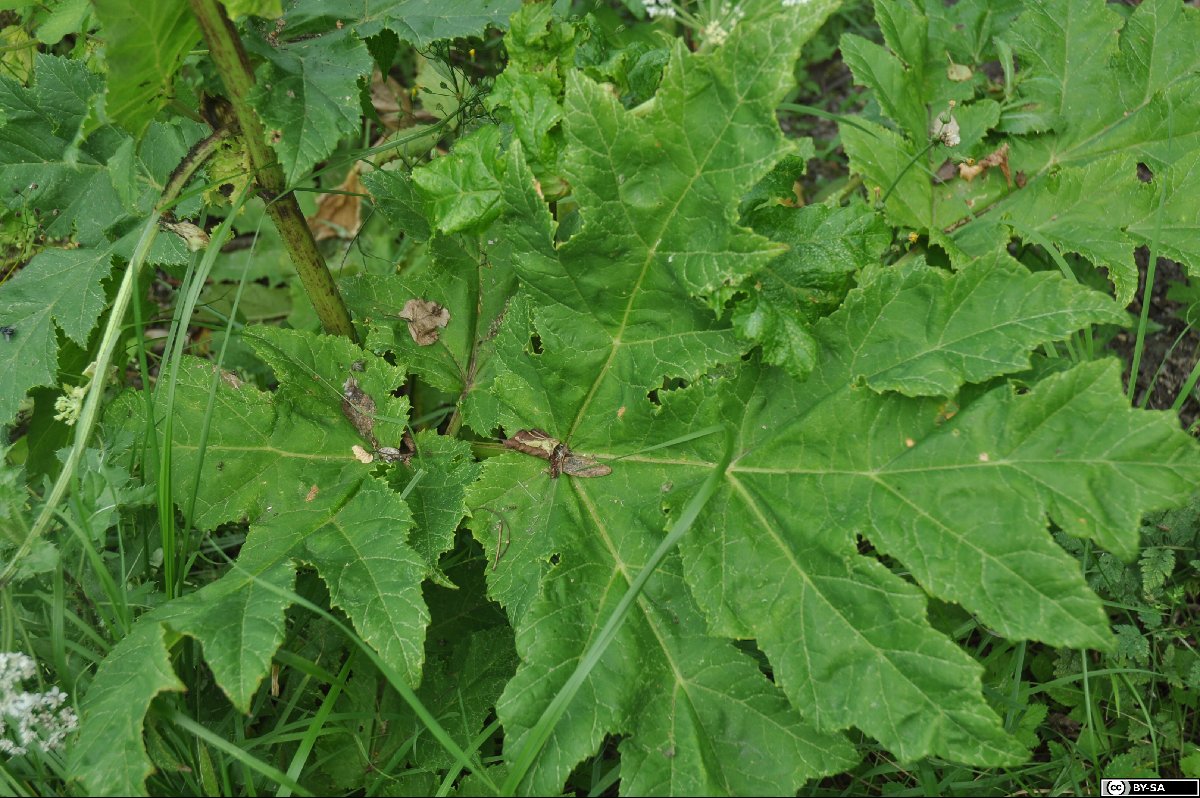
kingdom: Plantae
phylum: Tracheophyta
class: Magnoliopsida
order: Apiales
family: Apiaceae
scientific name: Apiaceae
